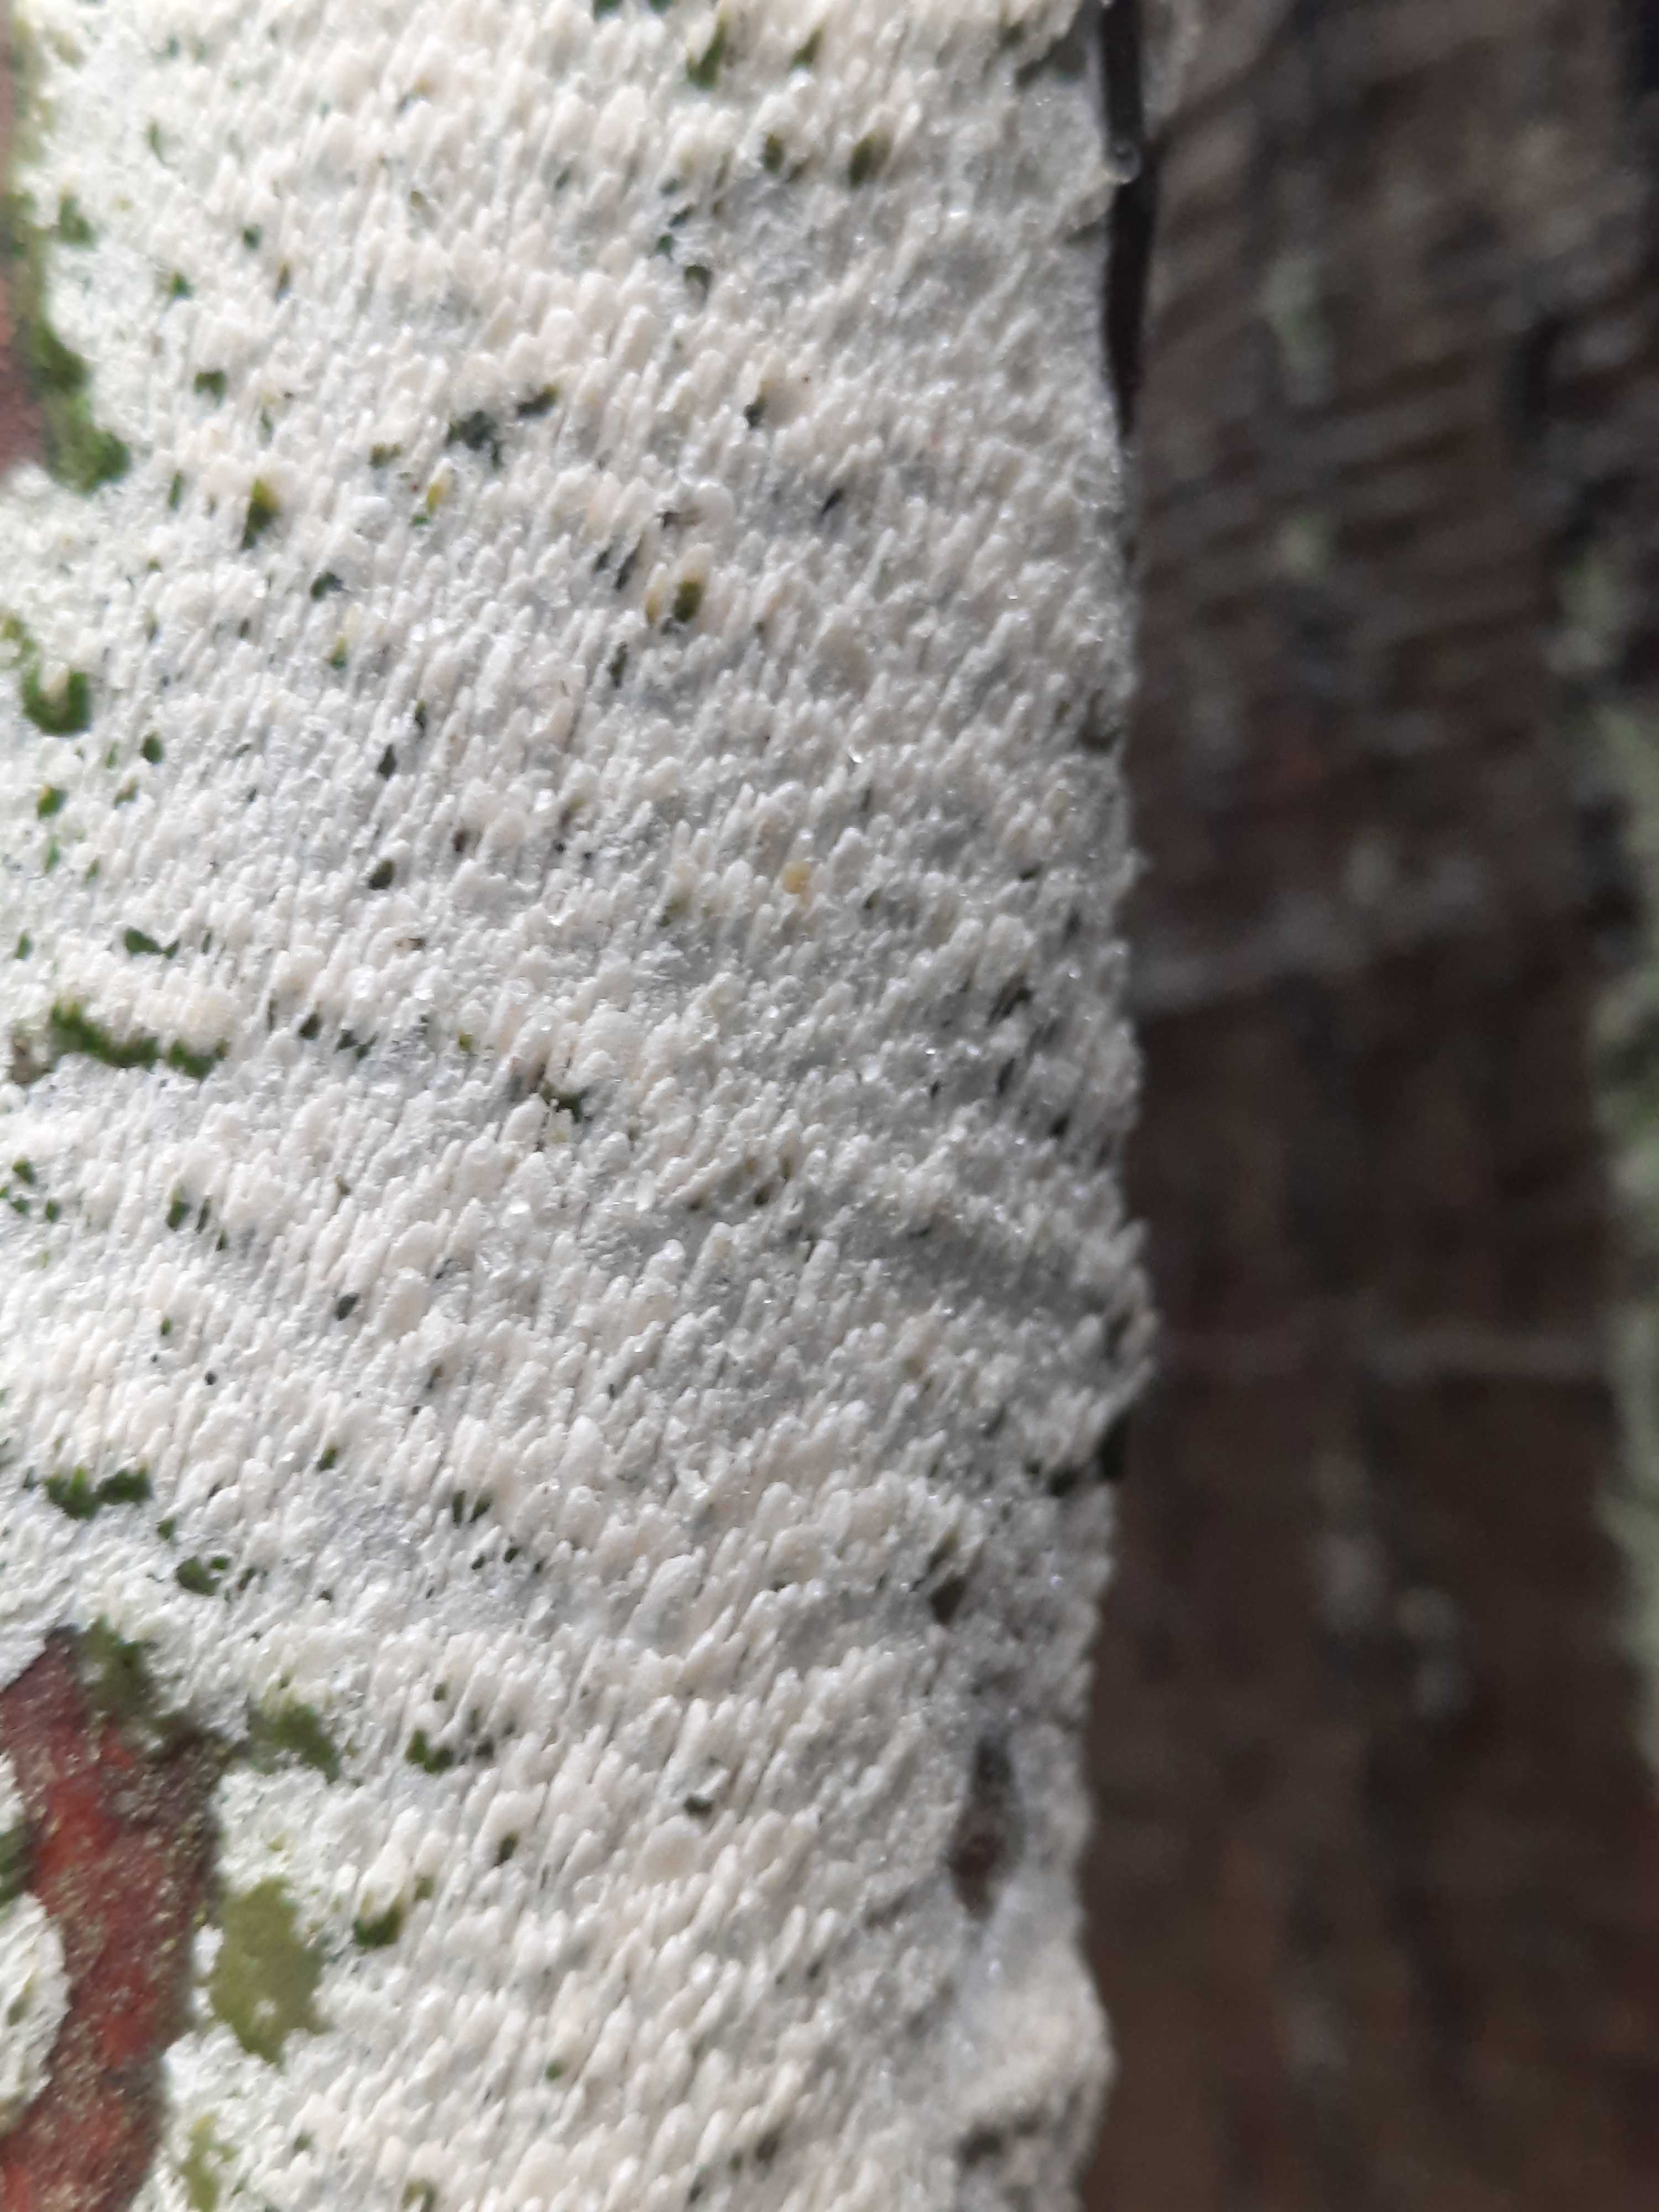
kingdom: Fungi
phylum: Basidiomycota
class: Agaricomycetes
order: Hymenochaetales
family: Schizoporaceae
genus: Schizopora
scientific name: Schizopora paradoxa
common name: hvid tandsvamp
